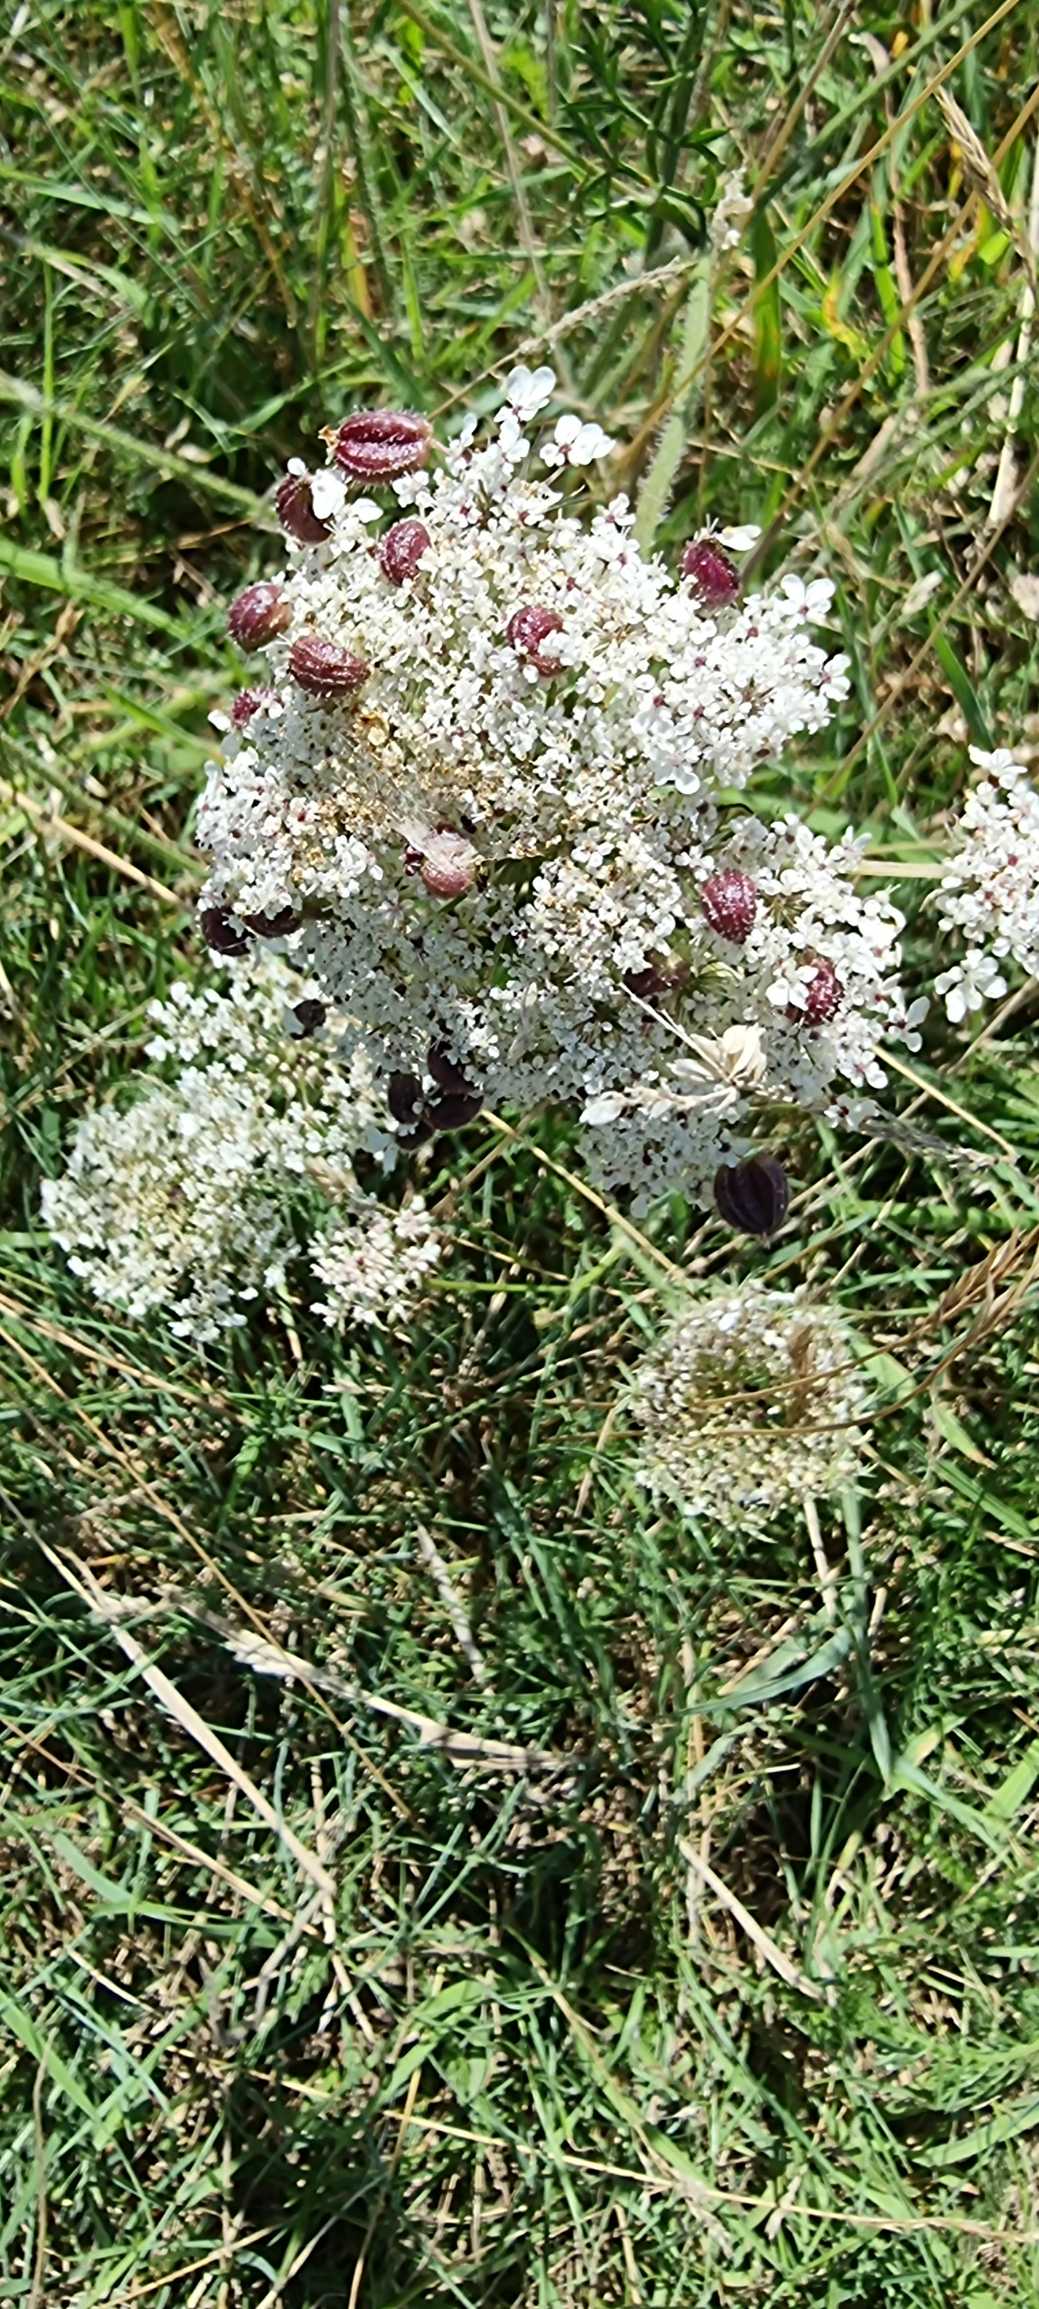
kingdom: Animalia
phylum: Arthropoda
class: Insecta
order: Diptera
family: Cecidomyiidae
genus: Kiefferia
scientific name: Kiefferia pericarpiicola
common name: Gulerodsgalmyg
